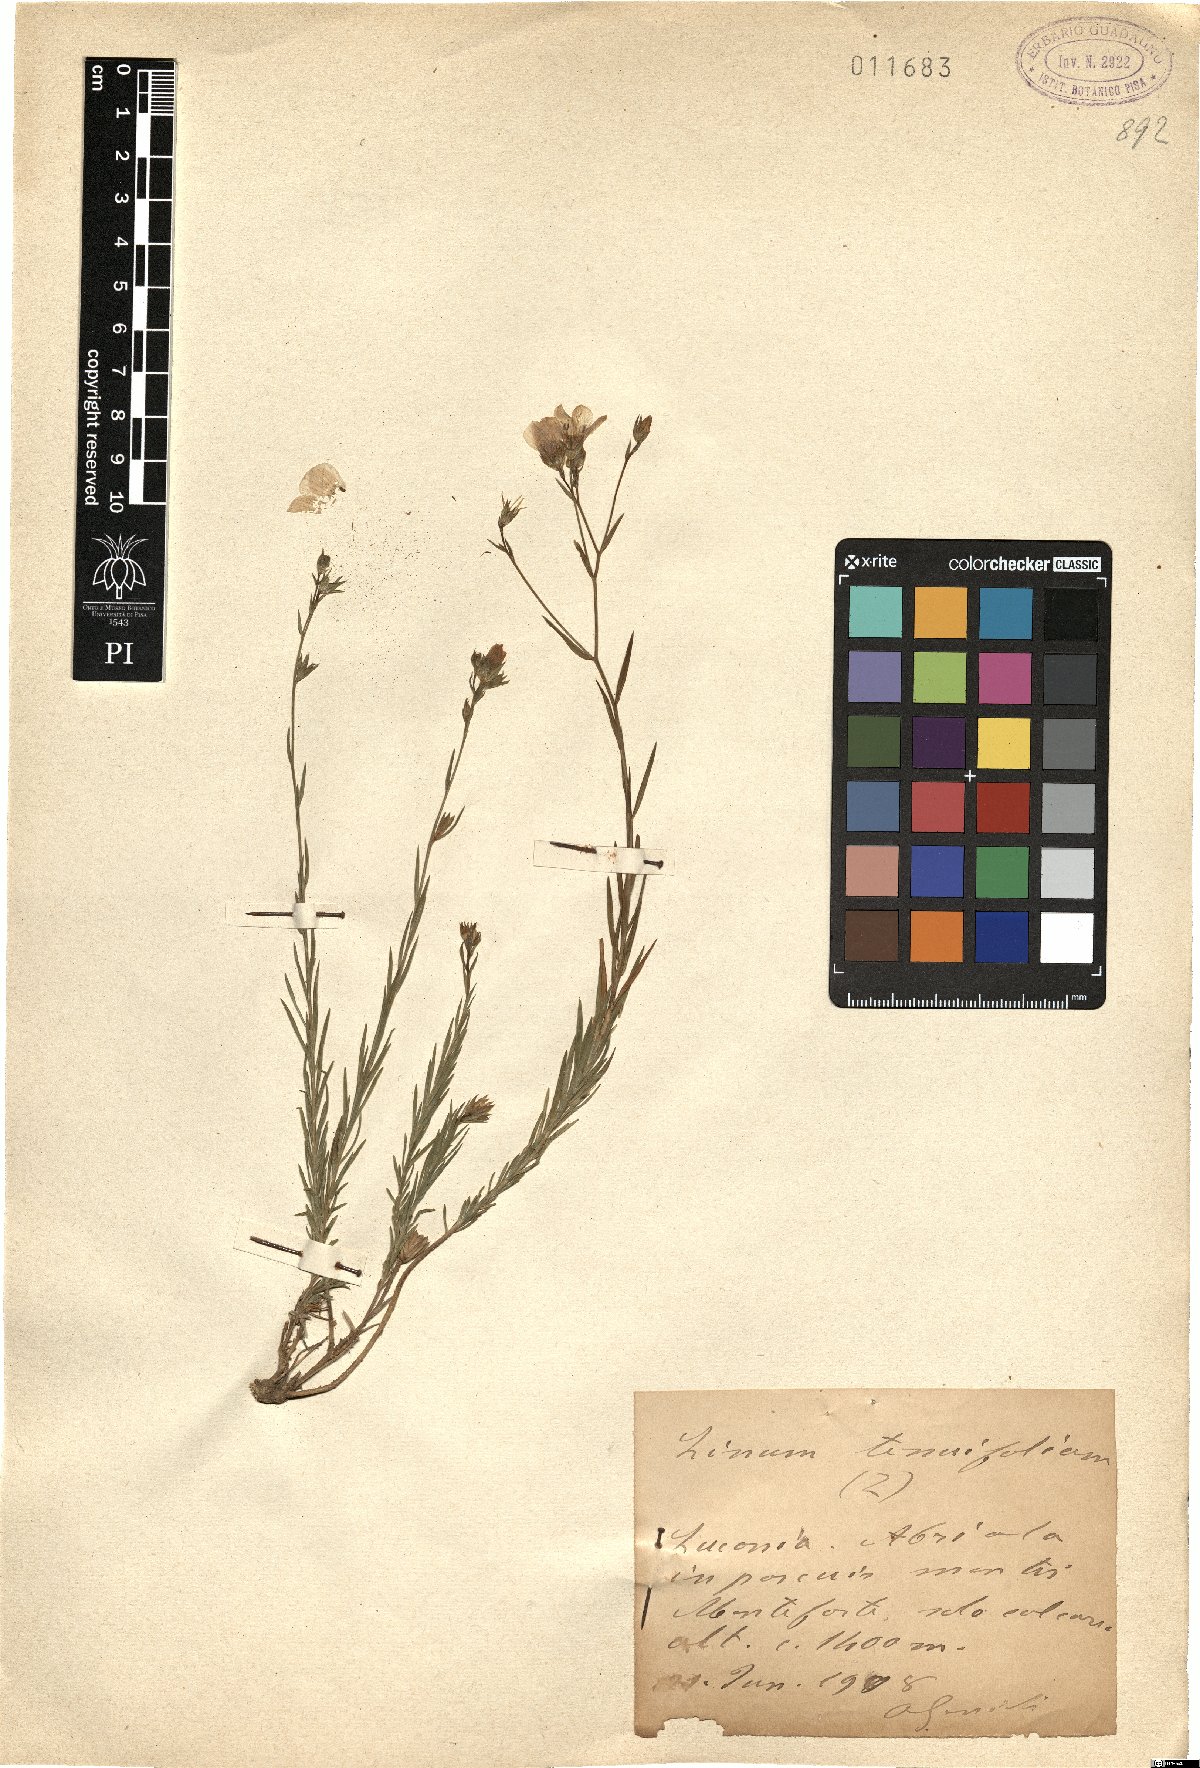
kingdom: Plantae
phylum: Tracheophyta
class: Magnoliopsida
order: Malpighiales
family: Linaceae
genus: Linum
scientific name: Linum tenuifolium
